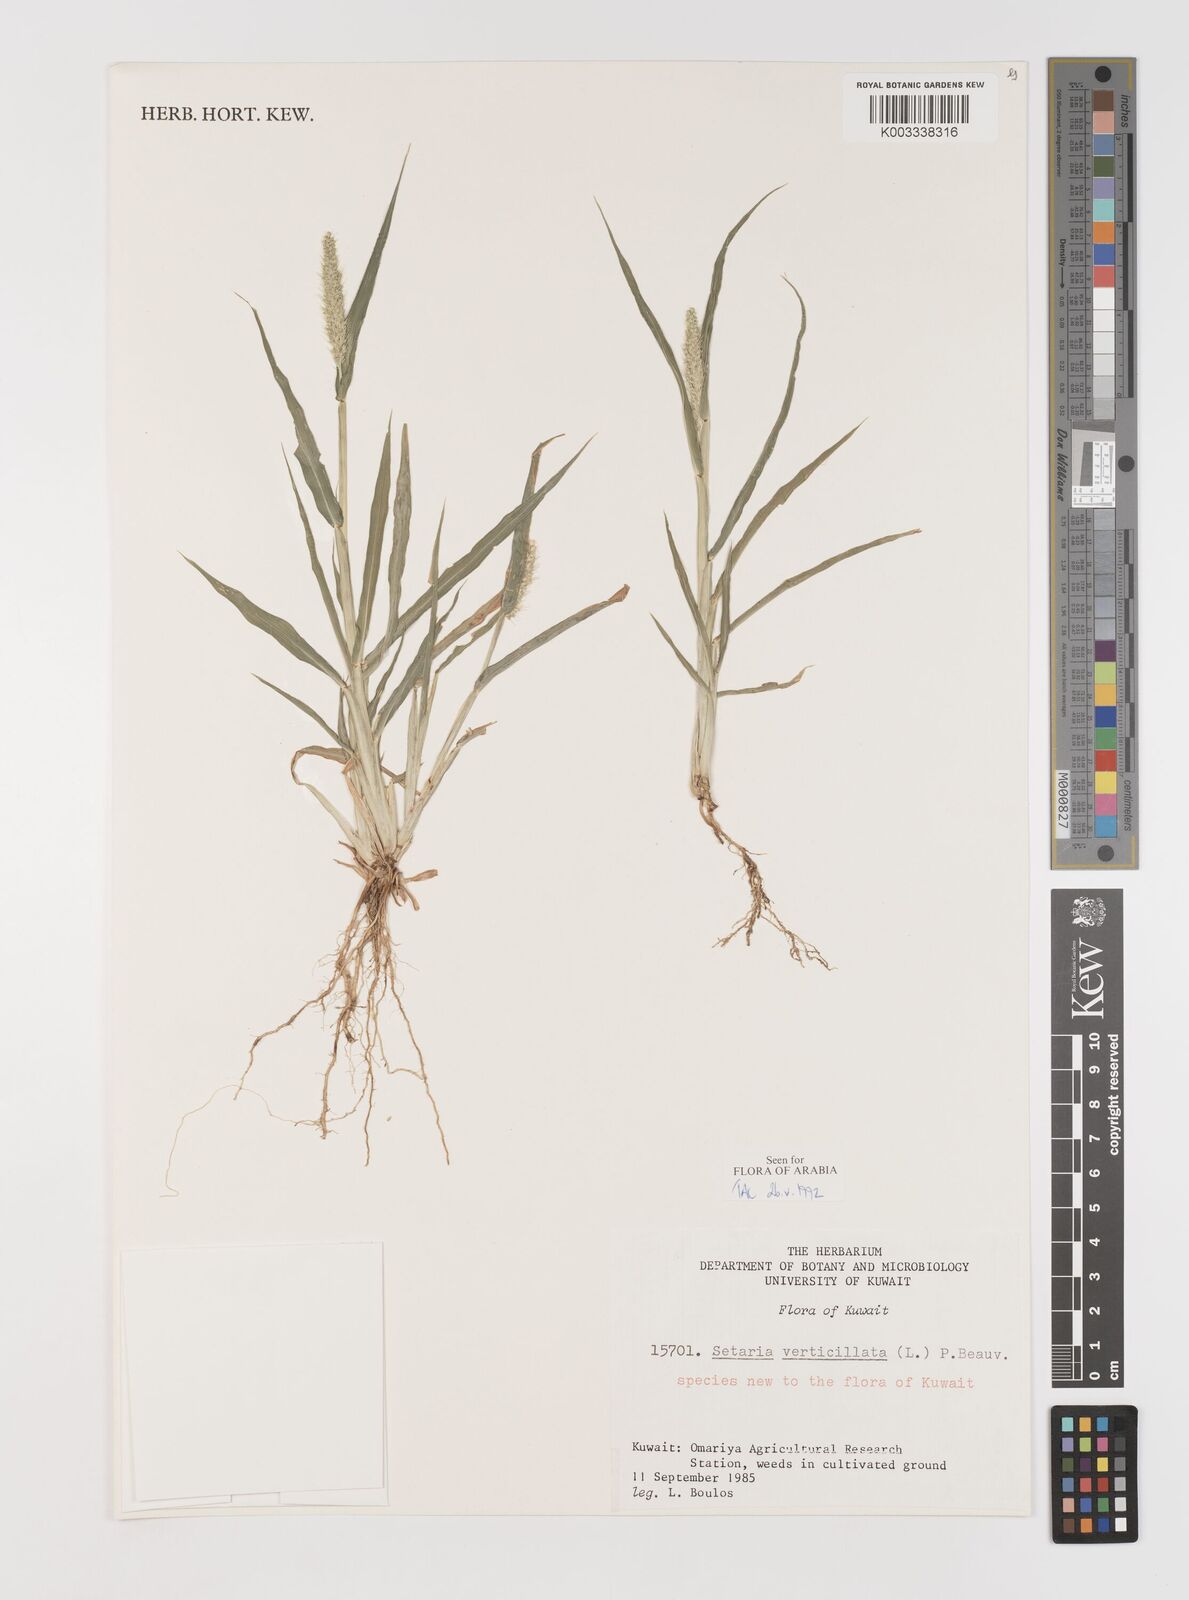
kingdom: Plantae
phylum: Tracheophyta
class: Liliopsida
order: Poales
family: Poaceae
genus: Setaria
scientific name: Setaria verticillata
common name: Hooked bristlegrass
